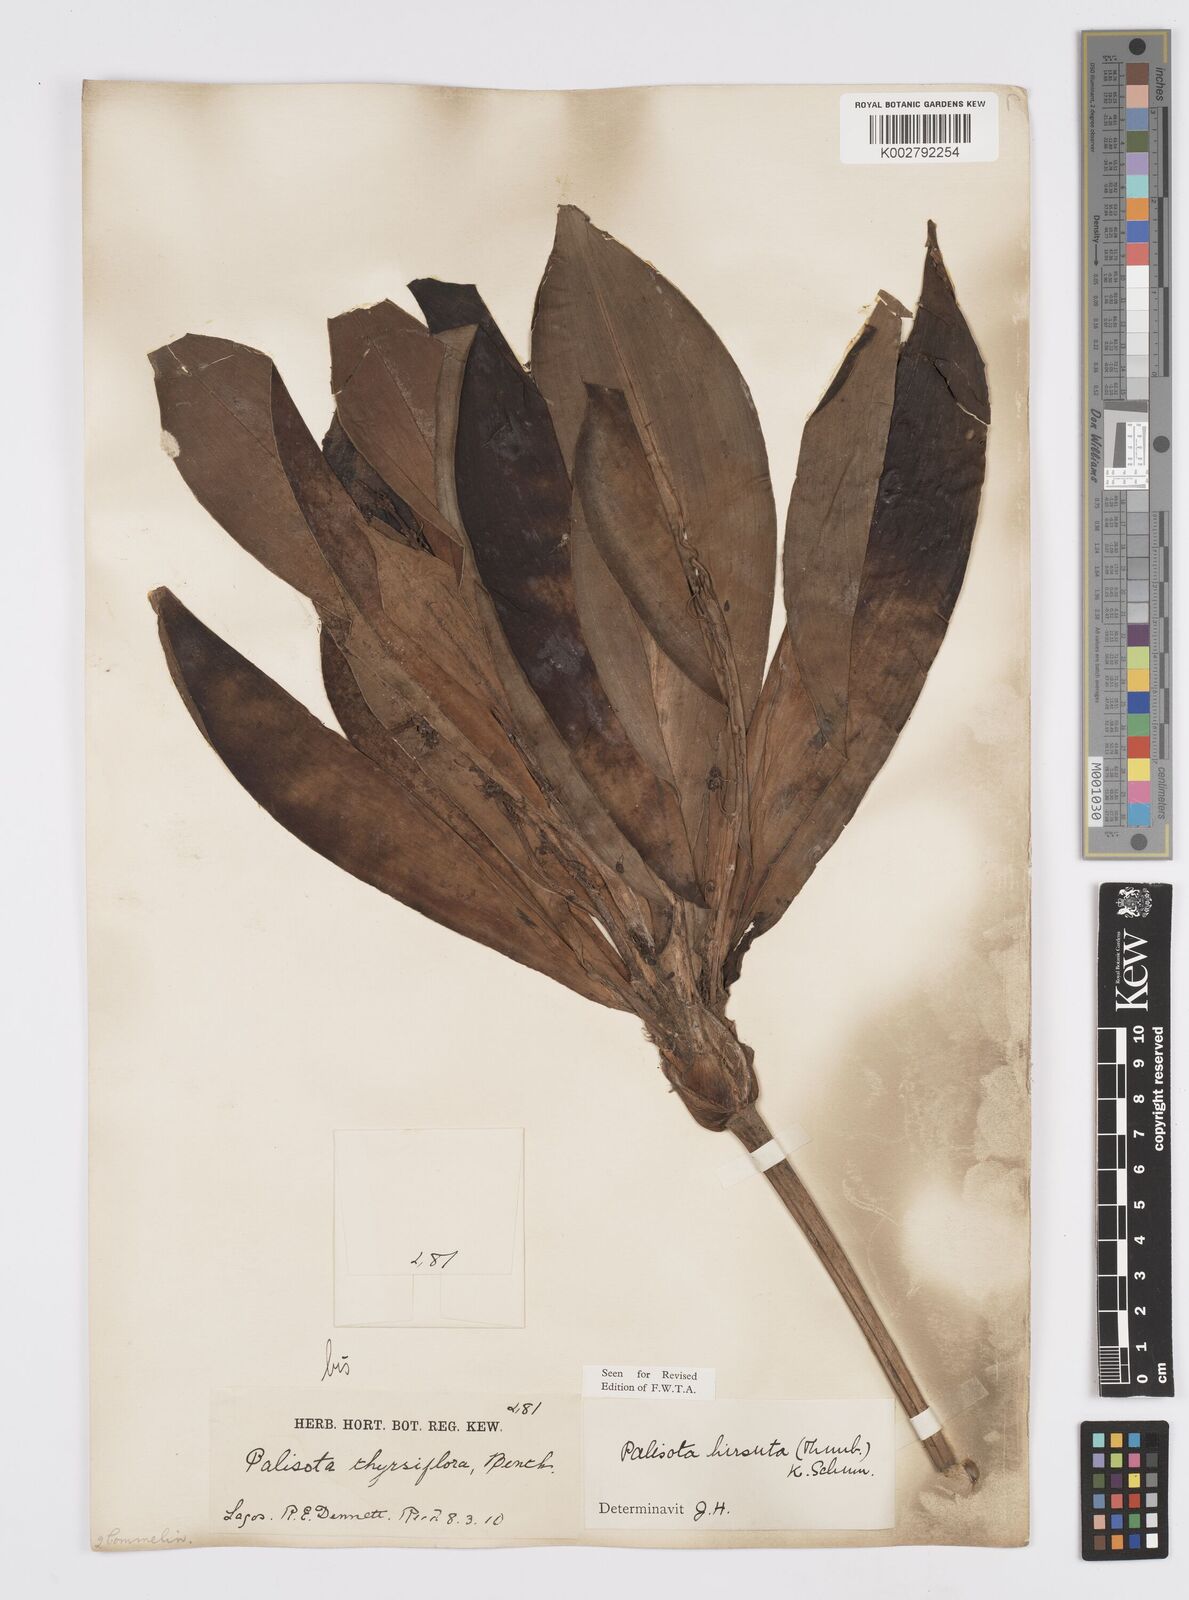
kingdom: Plantae
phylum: Tracheophyta
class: Liliopsida
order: Commelinales
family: Commelinaceae
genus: Palisota
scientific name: Palisota hirsuta
